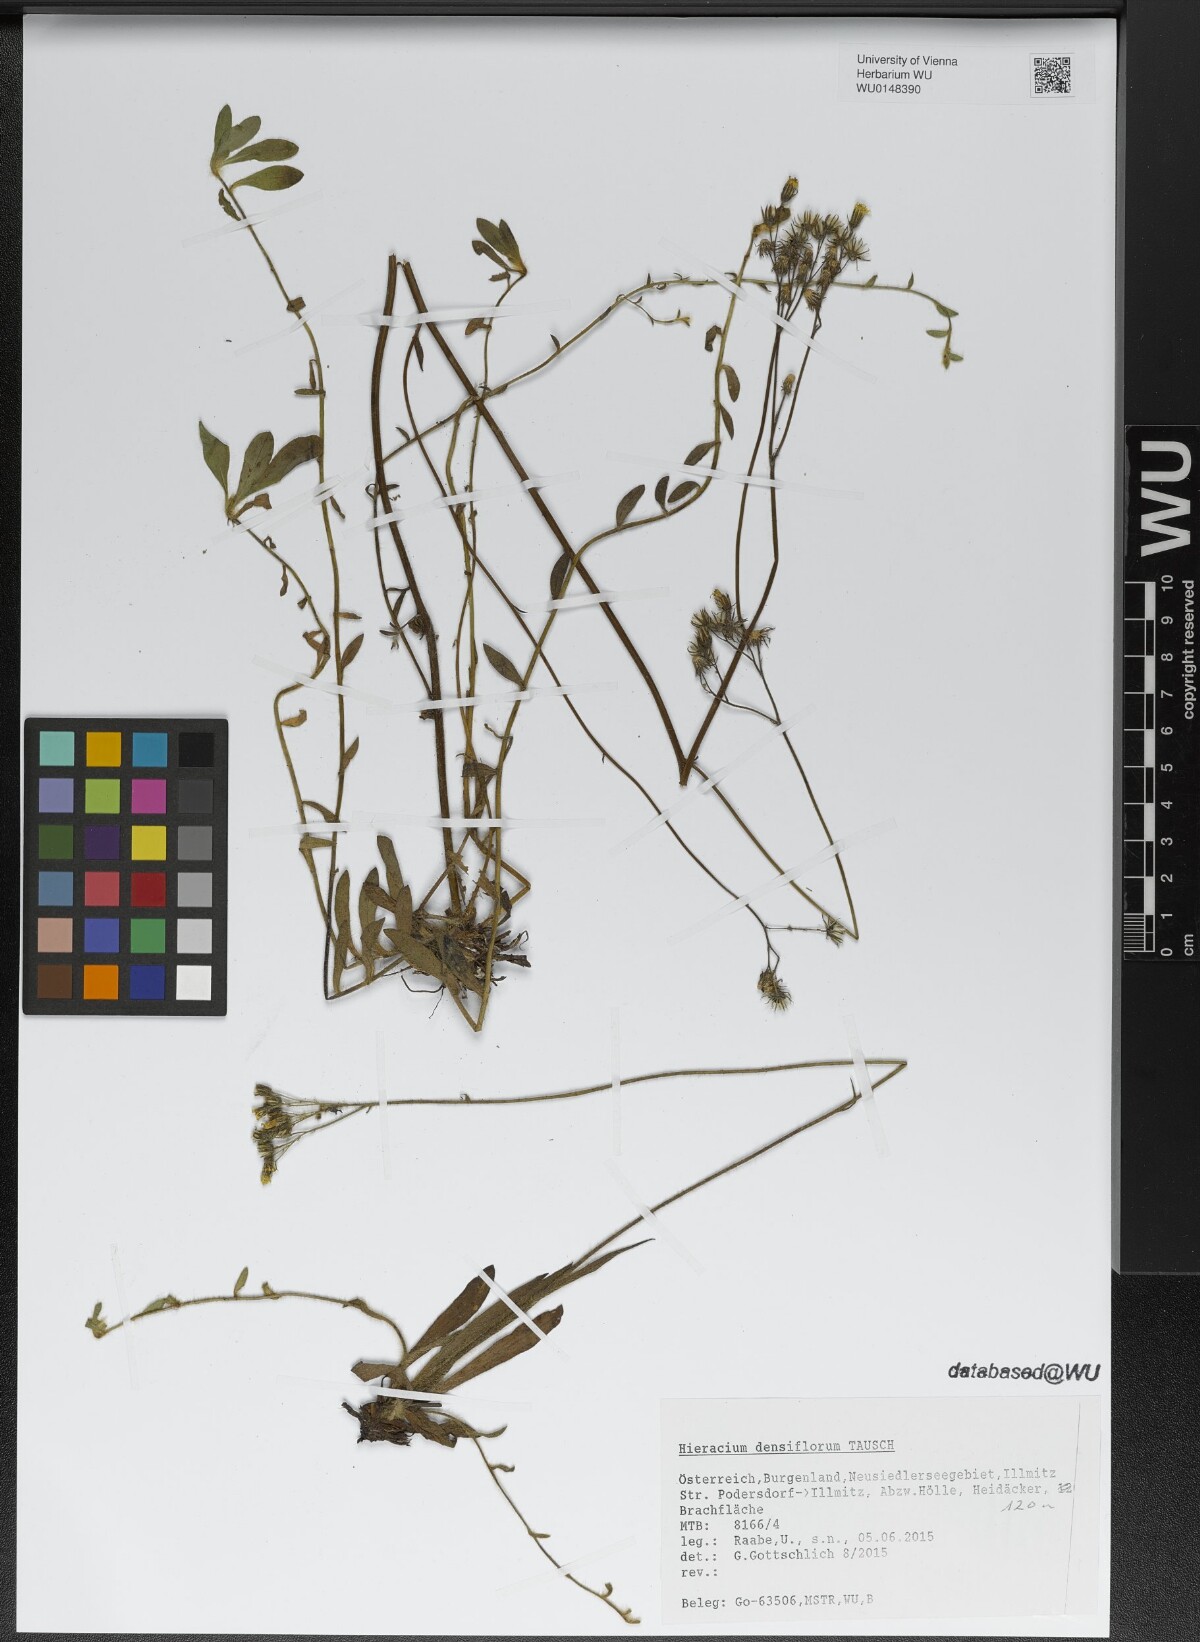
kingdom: Plantae
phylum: Tracheophyta
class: Magnoliopsida
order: Asterales
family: Asteraceae
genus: Pilosella
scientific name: Pilosella densiflora
